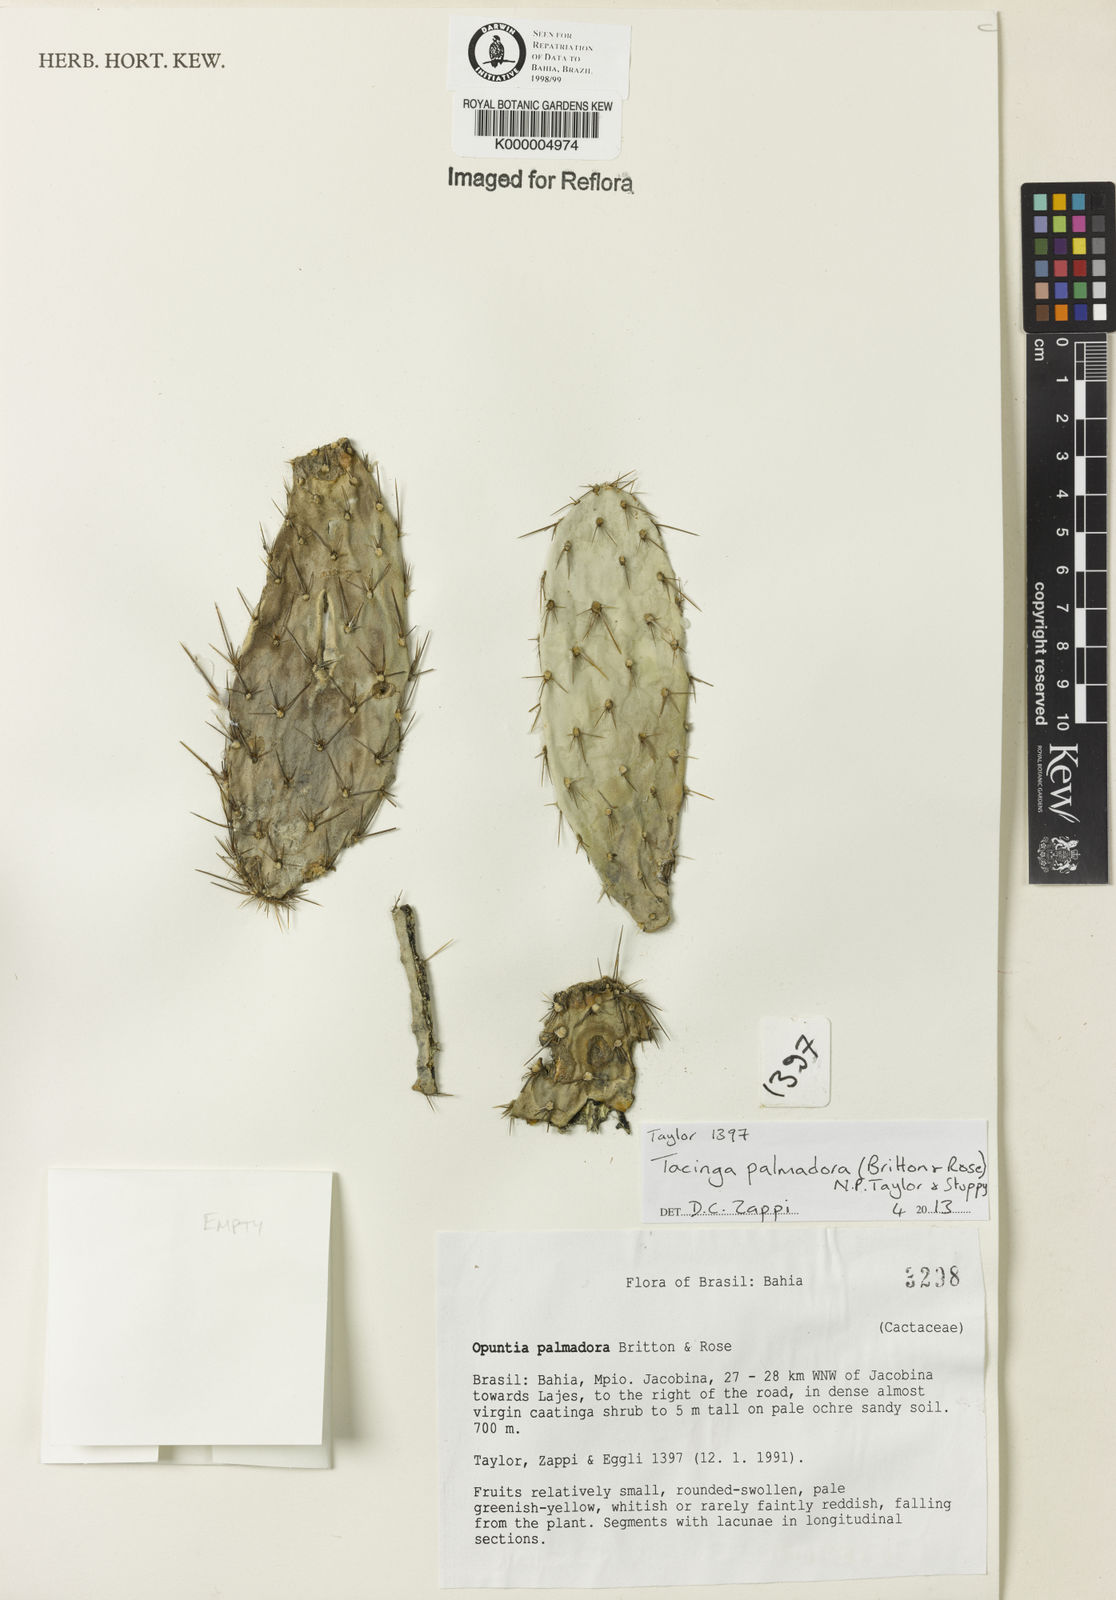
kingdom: Plantae
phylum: Tracheophyta
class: Magnoliopsida
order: Caryophyllales
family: Cactaceae
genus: Tacinga
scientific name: Tacinga palmadora
